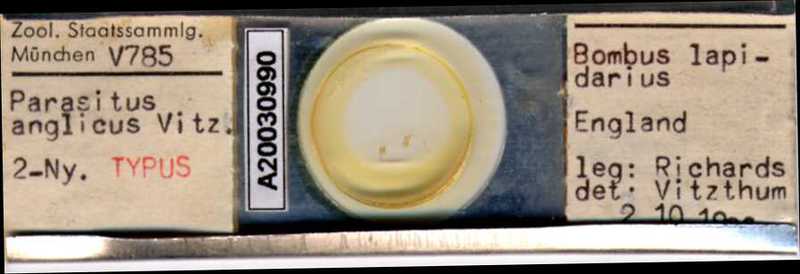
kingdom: Animalia
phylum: Arthropoda
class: Arachnida
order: Mesostigmata
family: Parasitidae
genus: Parasitus
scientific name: Parasitus
